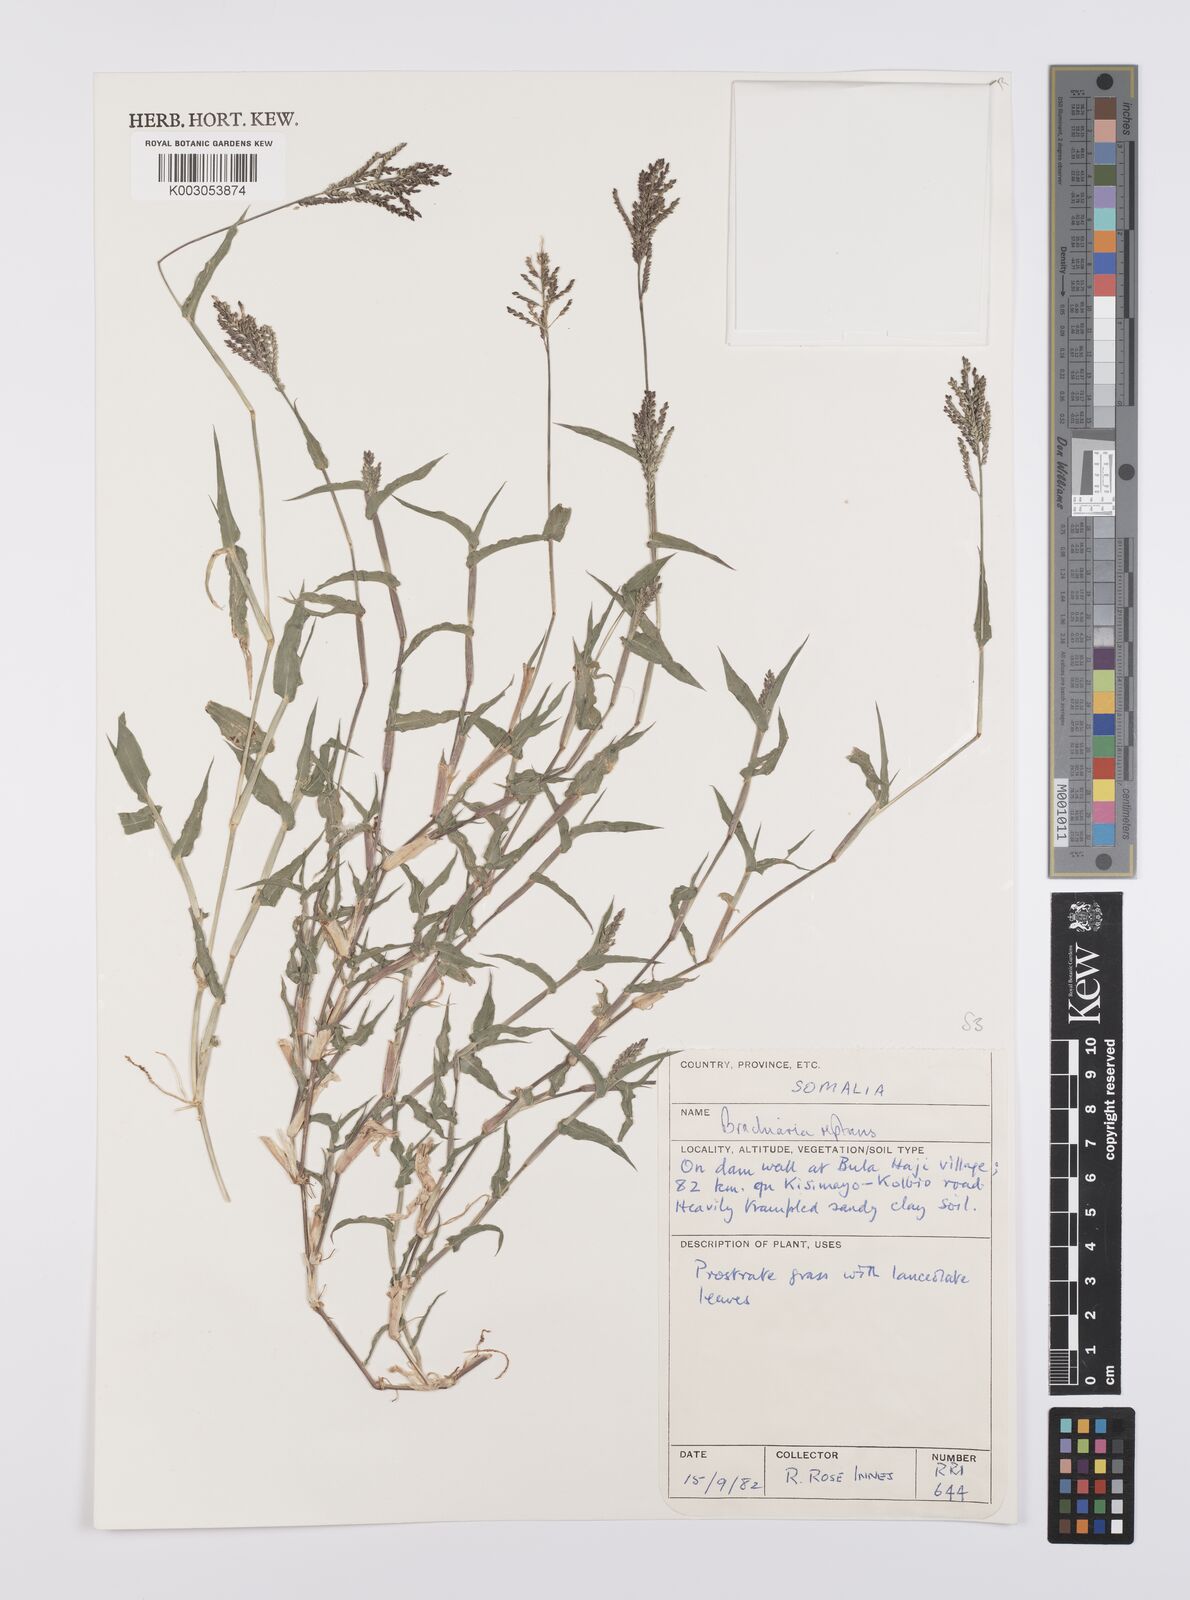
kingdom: Plantae
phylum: Tracheophyta
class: Liliopsida
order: Poales
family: Poaceae
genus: Urochloa
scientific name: Urochloa reptans
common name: Sprawling signalgrass
